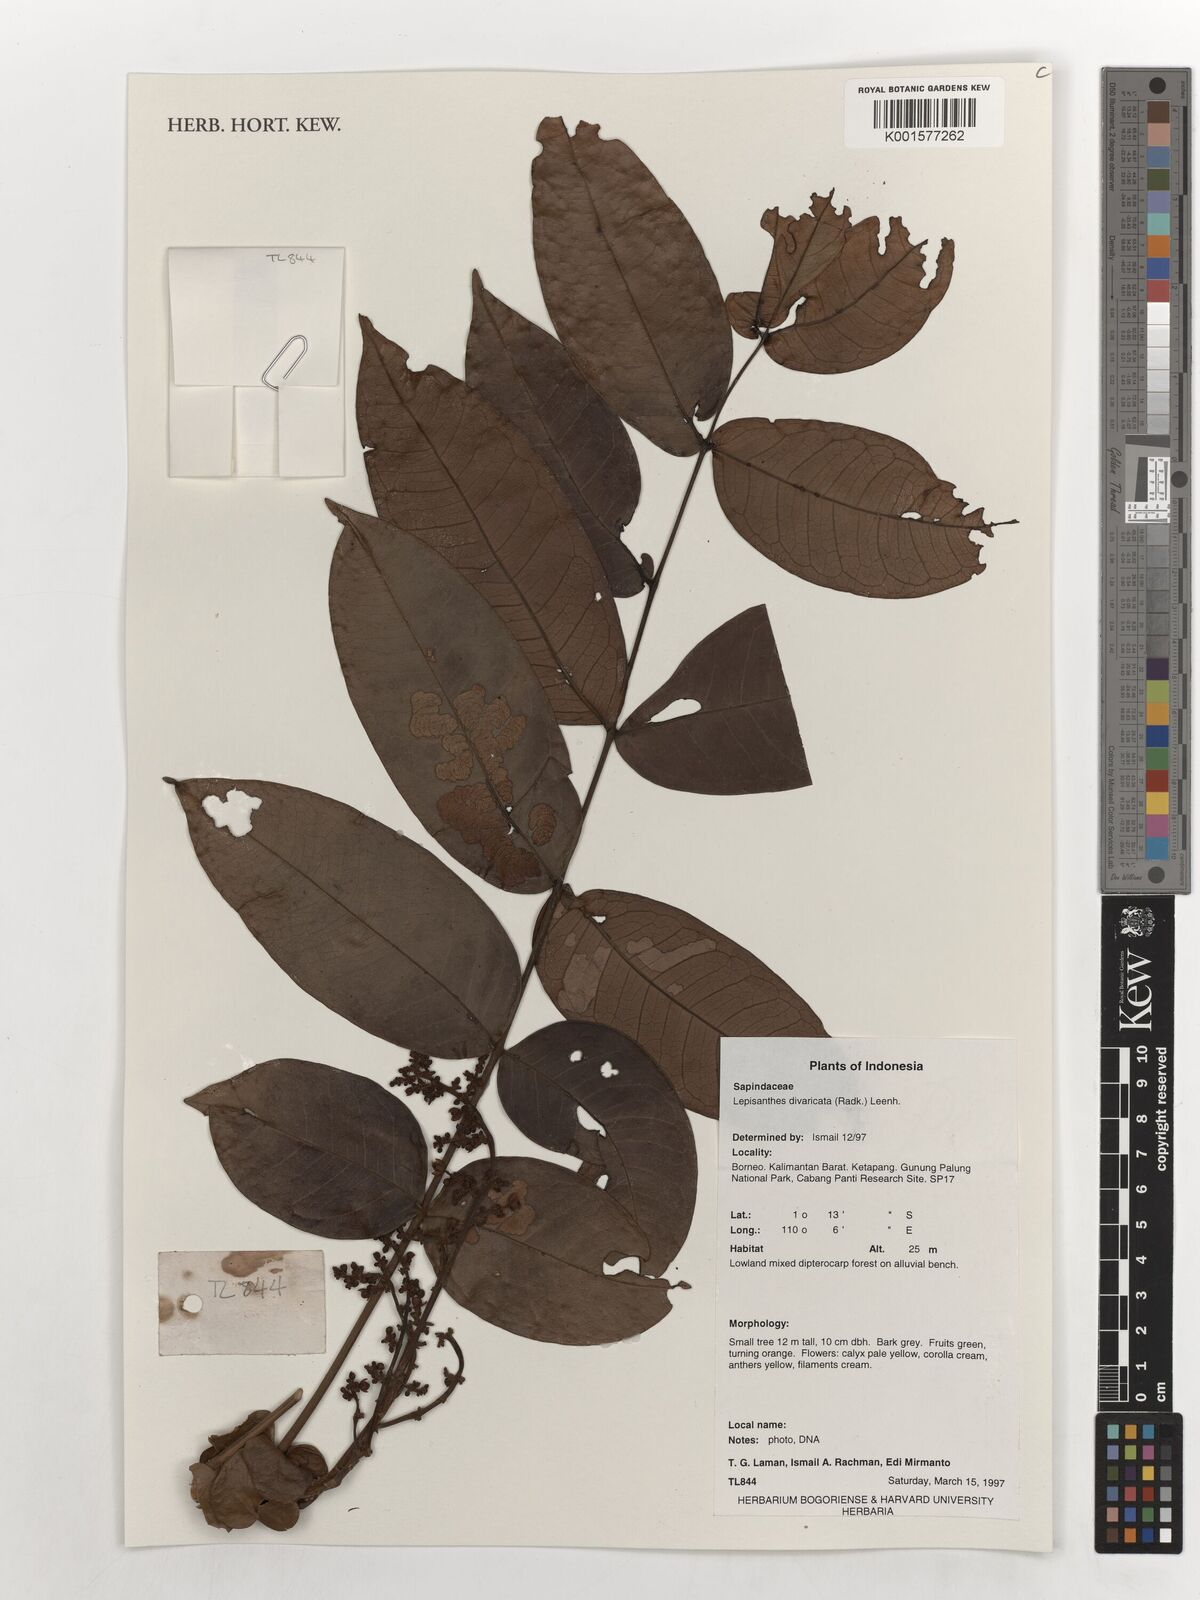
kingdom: Plantae
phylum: Tracheophyta
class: Magnoliopsida
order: Sapindales
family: Sapindaceae
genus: Lepisanthes
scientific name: Lepisanthes divaricata
